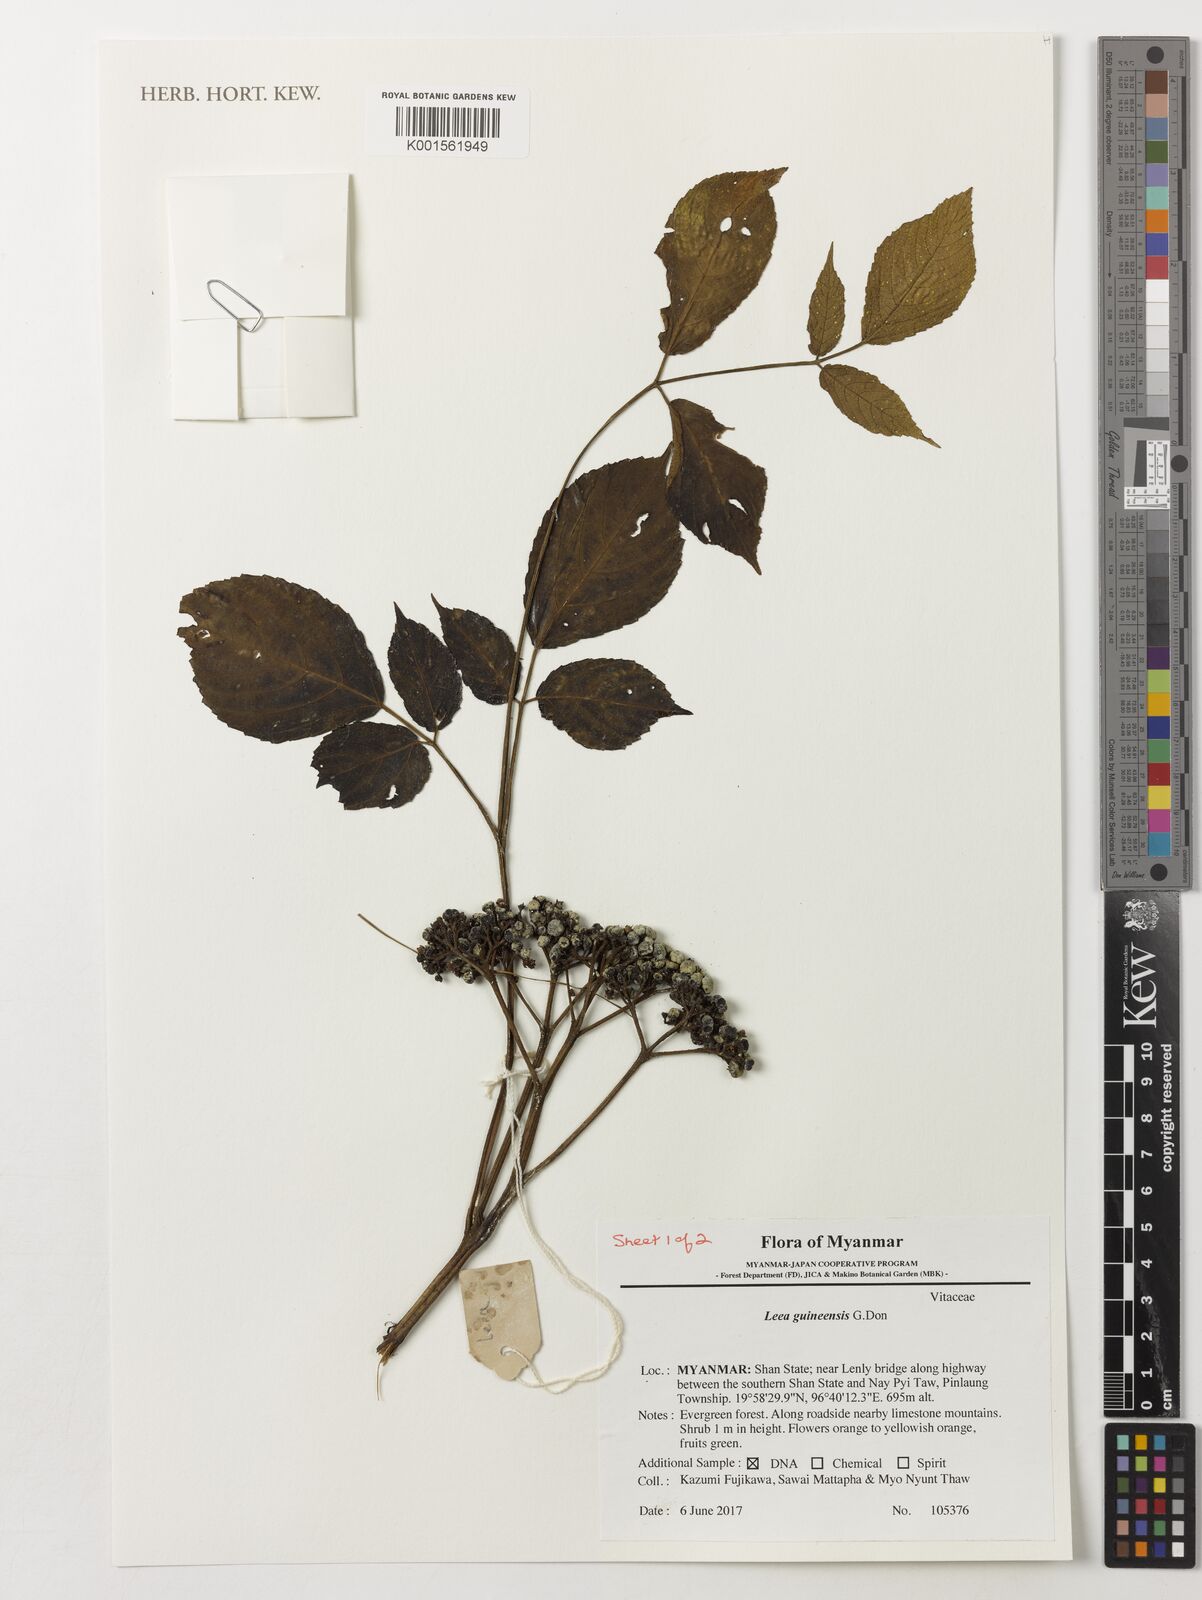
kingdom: Plantae
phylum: Tracheophyta
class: Magnoliopsida
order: Vitales
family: Vitaceae
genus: Leea
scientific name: Leea guineensis
